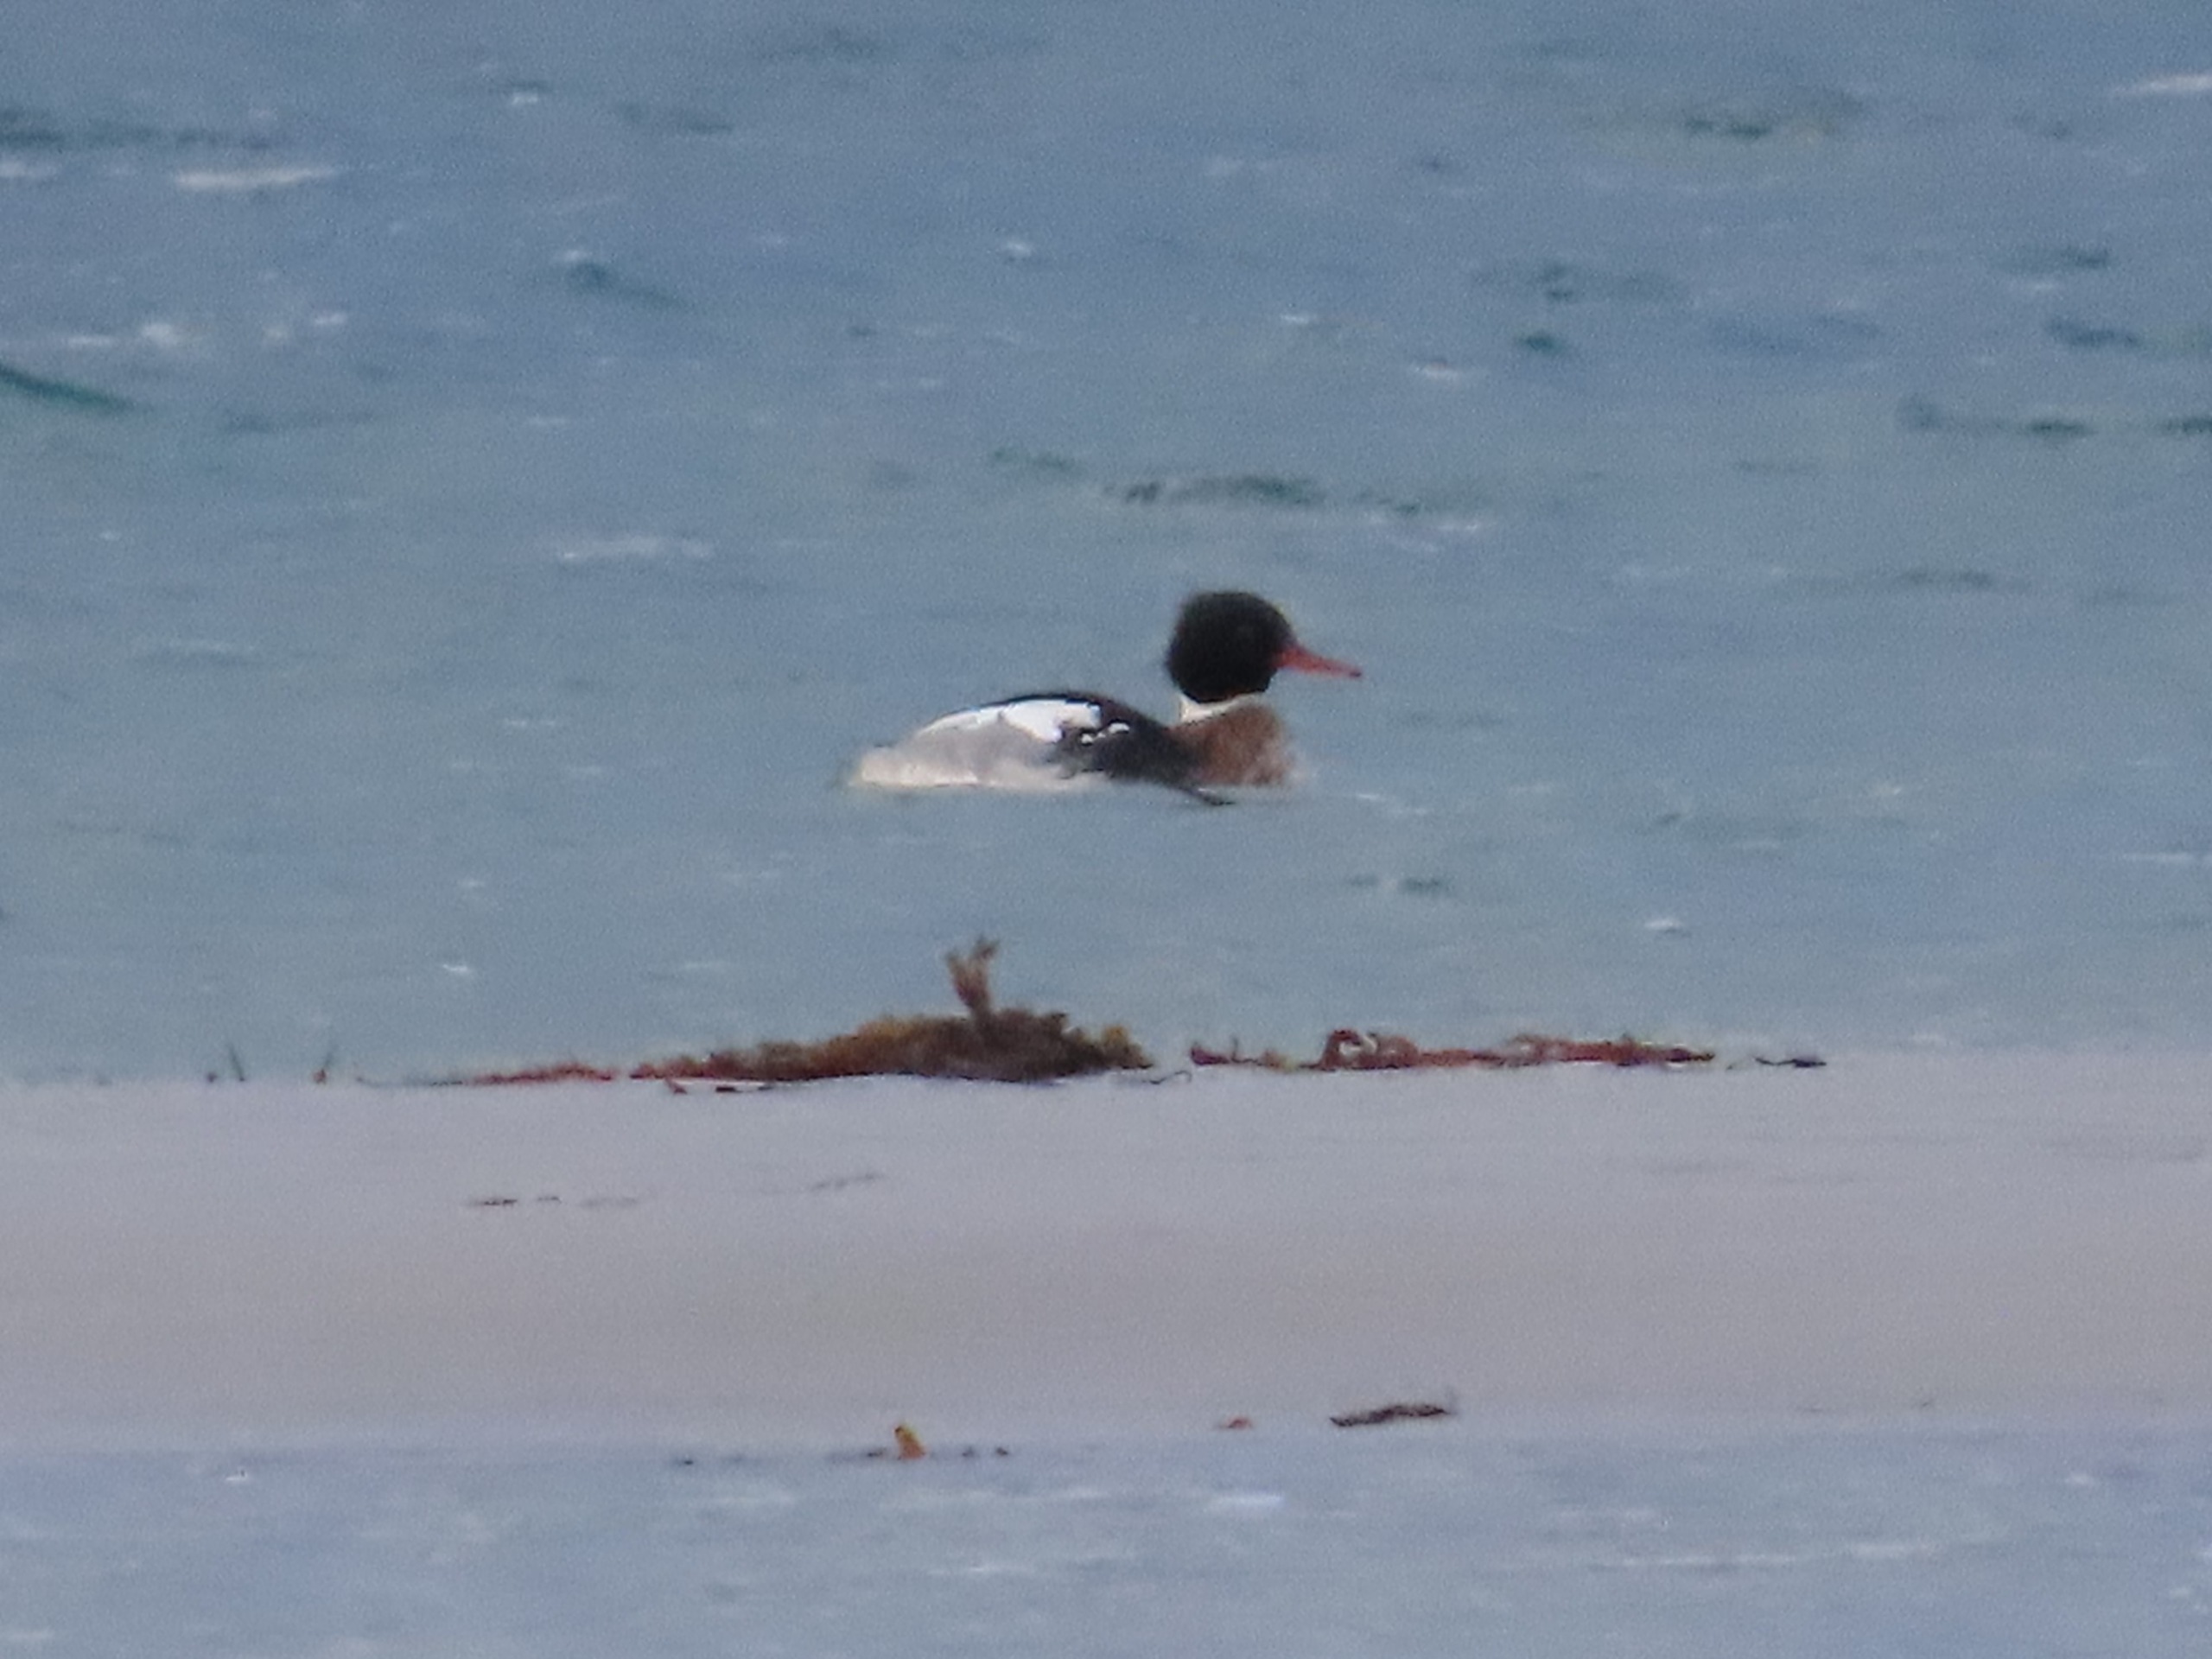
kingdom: Animalia
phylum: Chordata
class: Aves
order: Anseriformes
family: Anatidae
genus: Mergus
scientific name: Mergus serrator
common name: Toppet skallesluger
